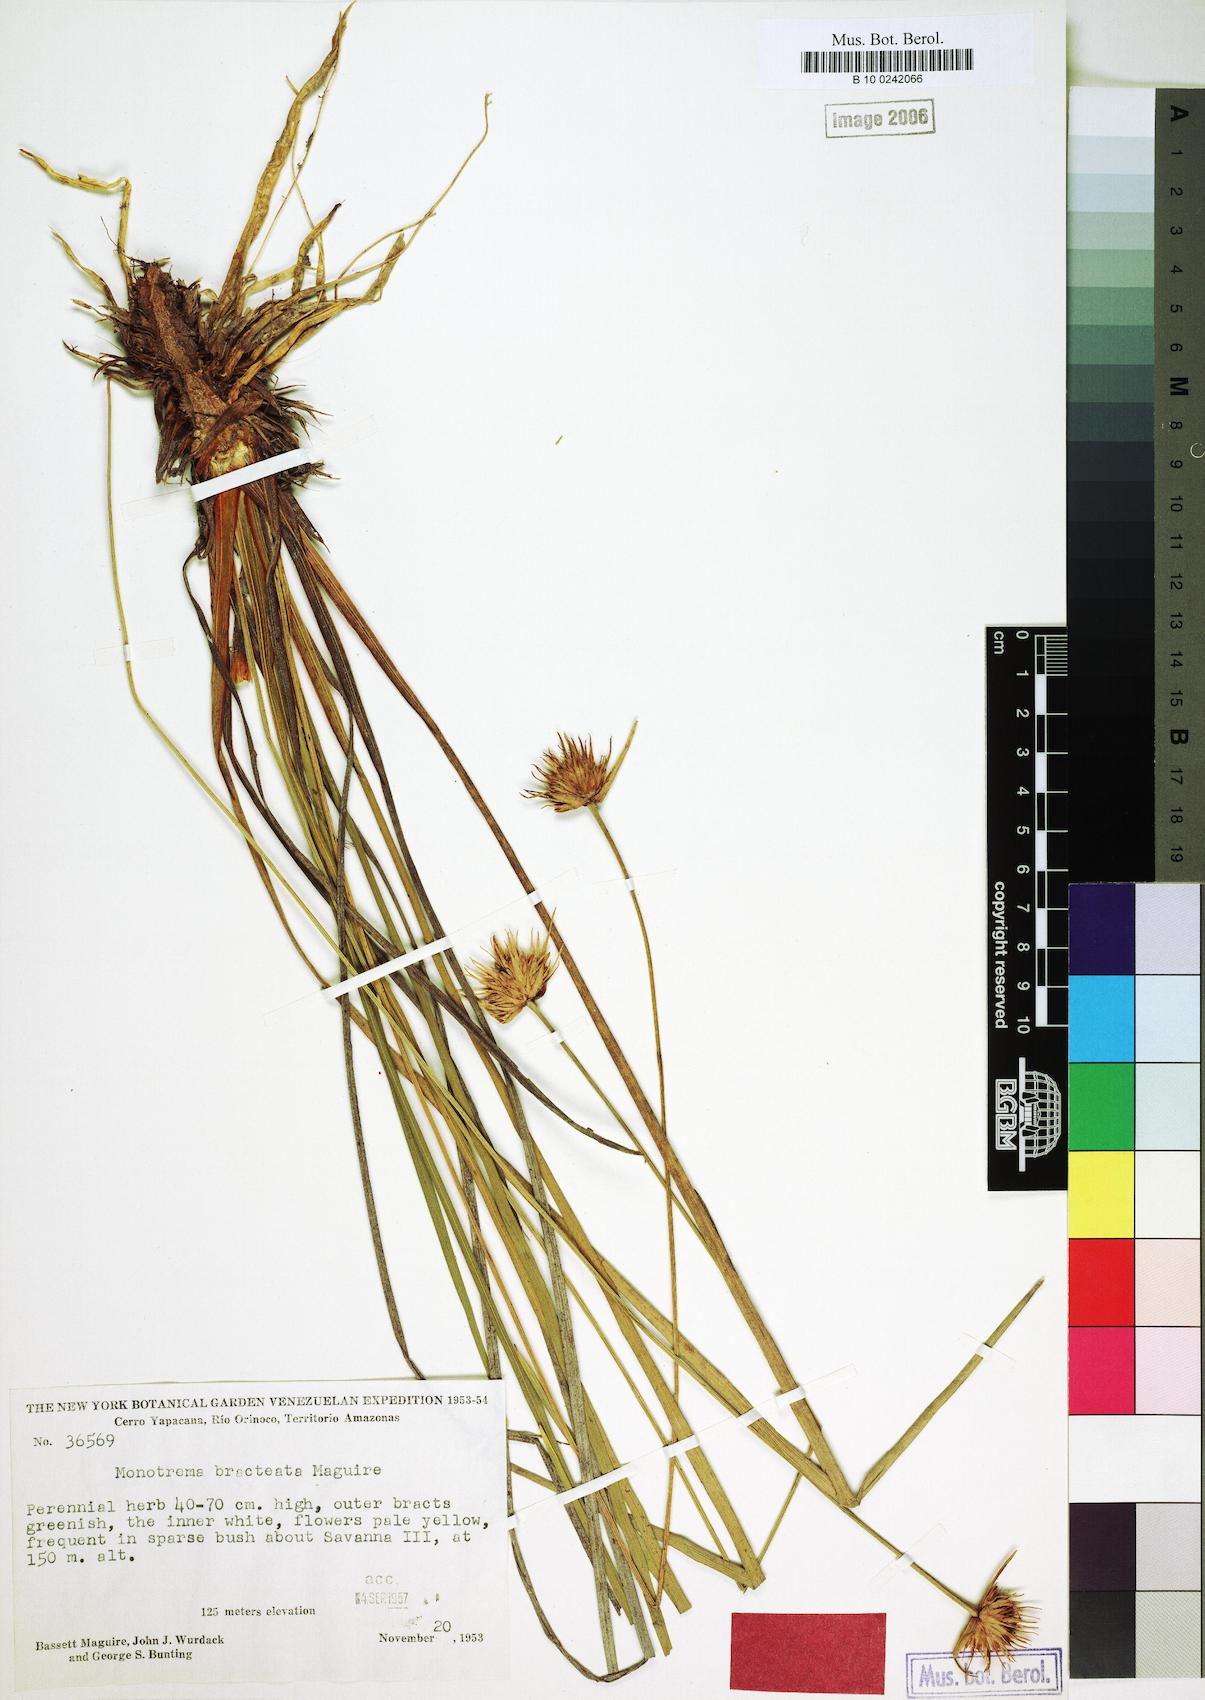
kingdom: Plantae
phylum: Tracheophyta
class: Liliopsida
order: Poales
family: Rapateaceae
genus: Monotrema
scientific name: Monotrema bracteatum
